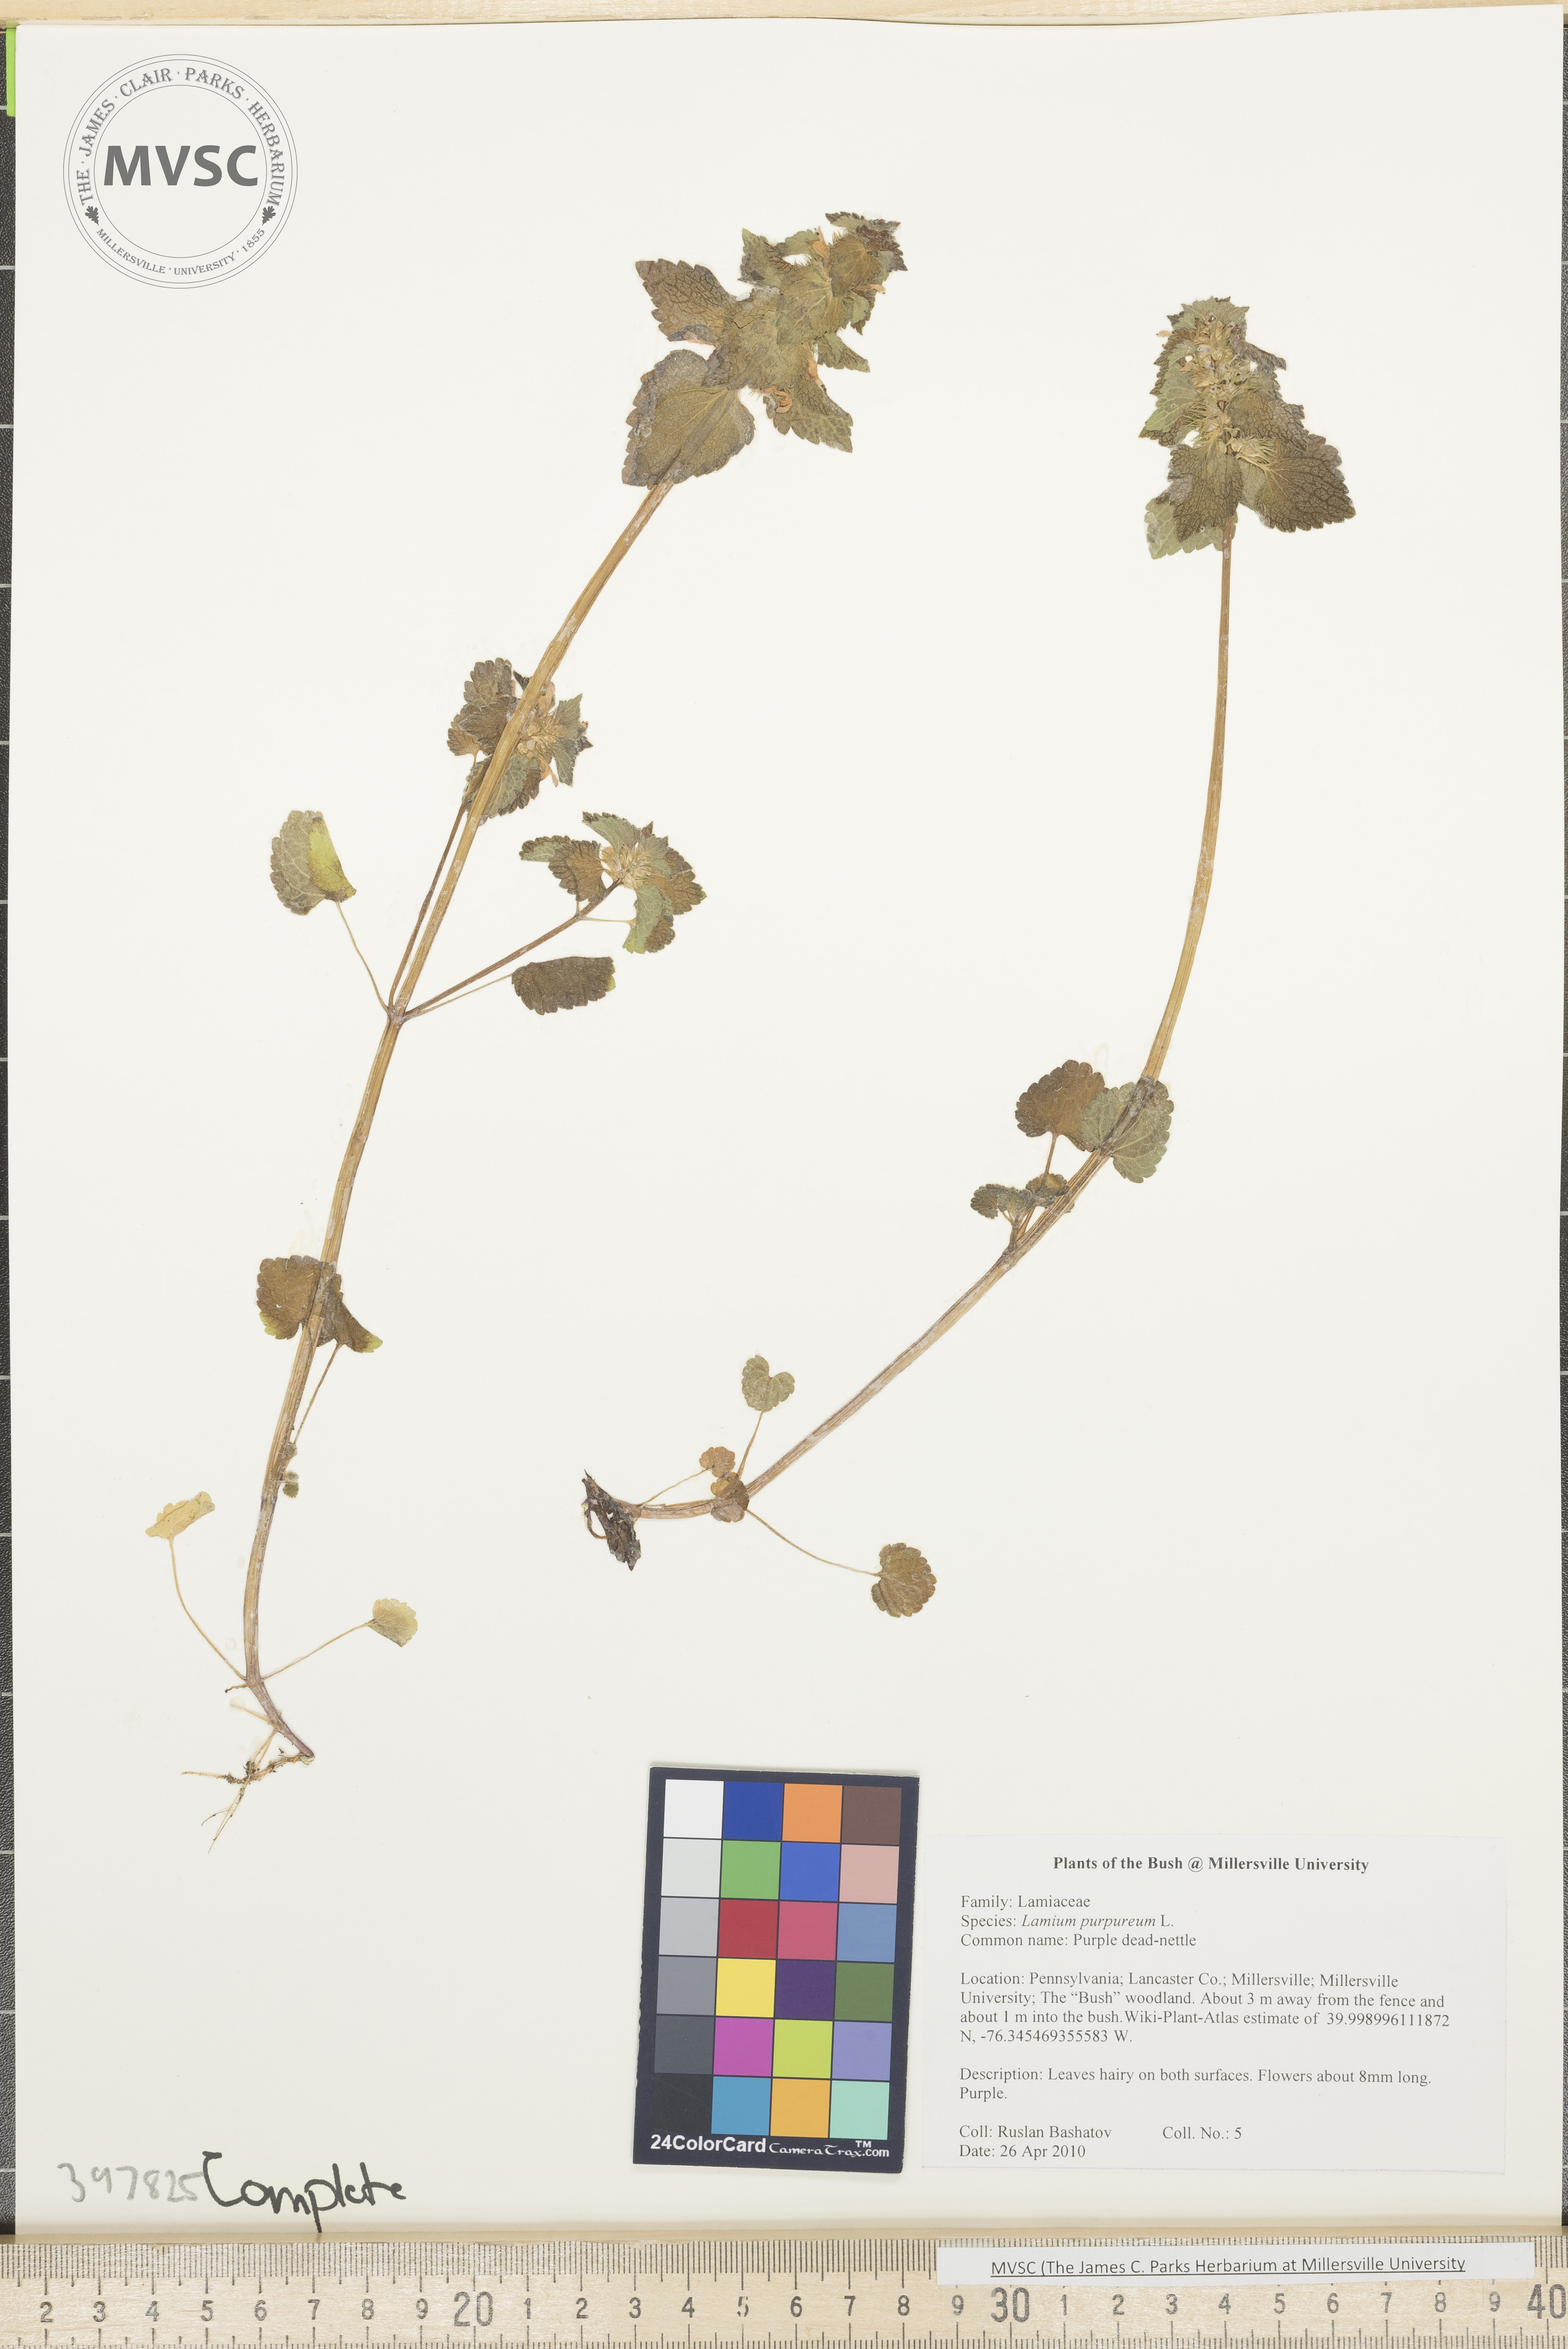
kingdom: Plantae
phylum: Tracheophyta
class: Magnoliopsida
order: Lamiales
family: Lamiaceae
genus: Lamium
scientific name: Lamium purpureum
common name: Purple dead-nettle
